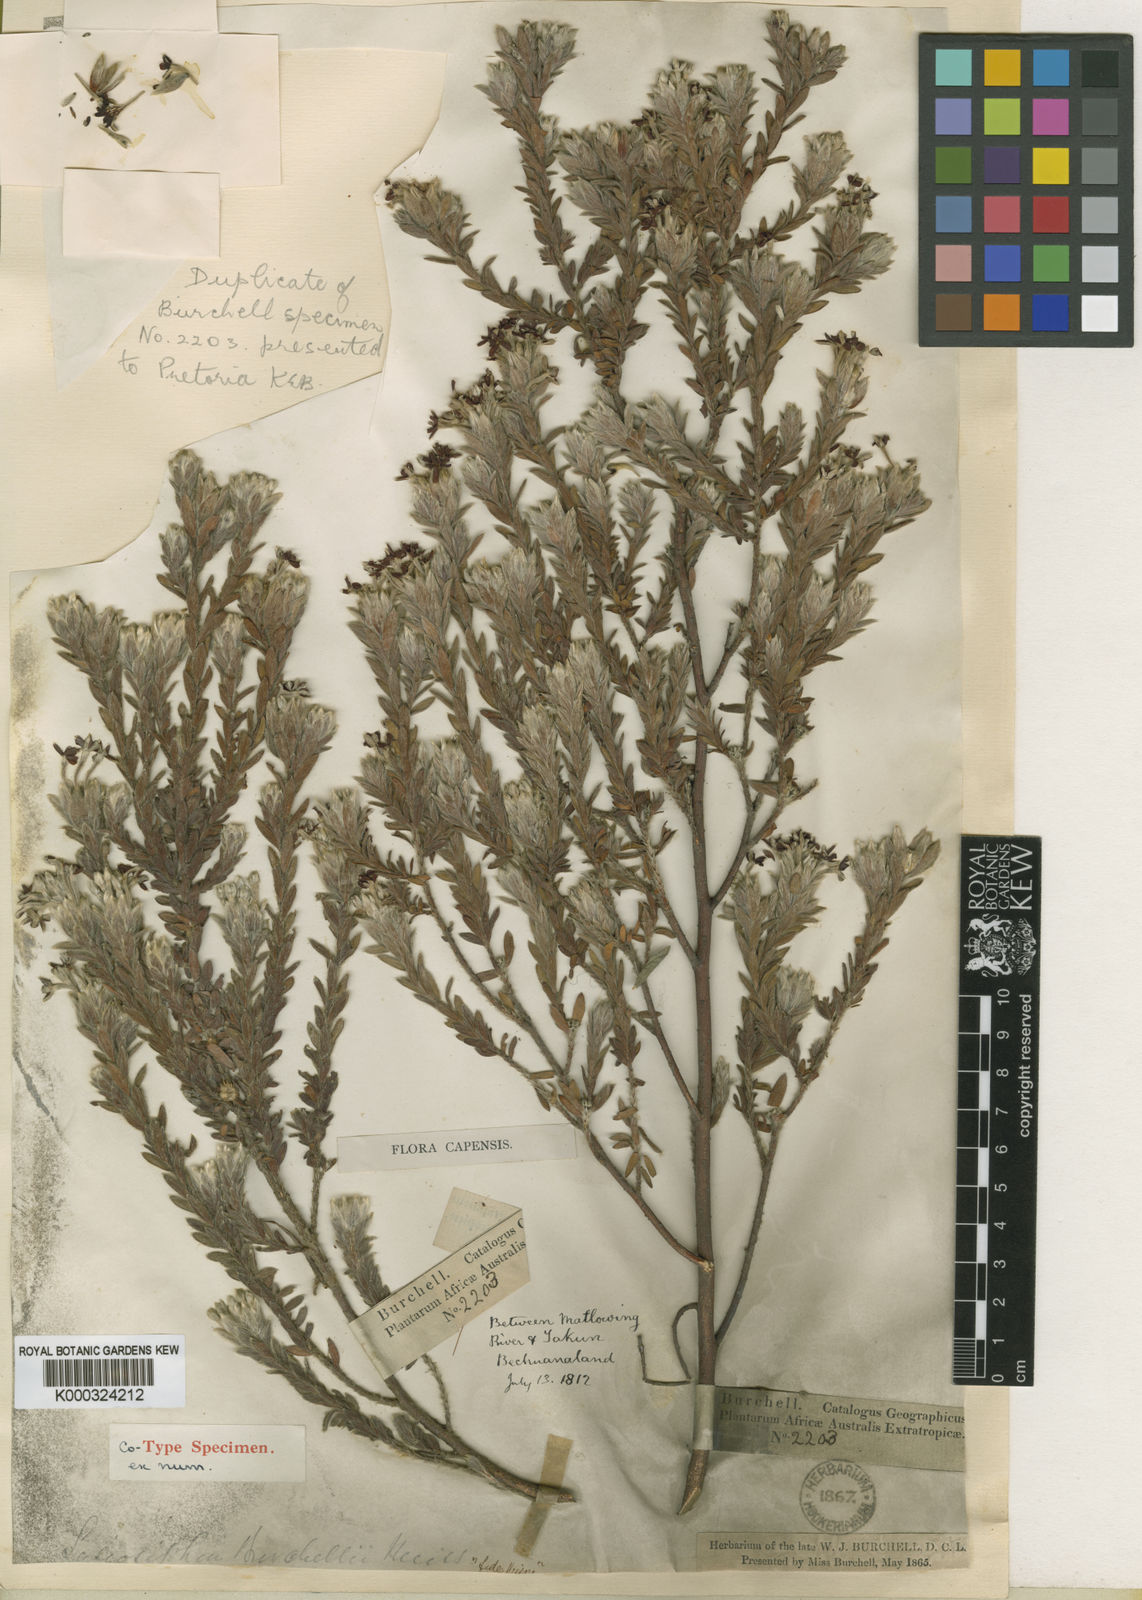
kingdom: Plantae
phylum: Tracheophyta
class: Magnoliopsida
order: Malvales
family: Thymelaeaceae
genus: Gnidia
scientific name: Gnidia burchellii
